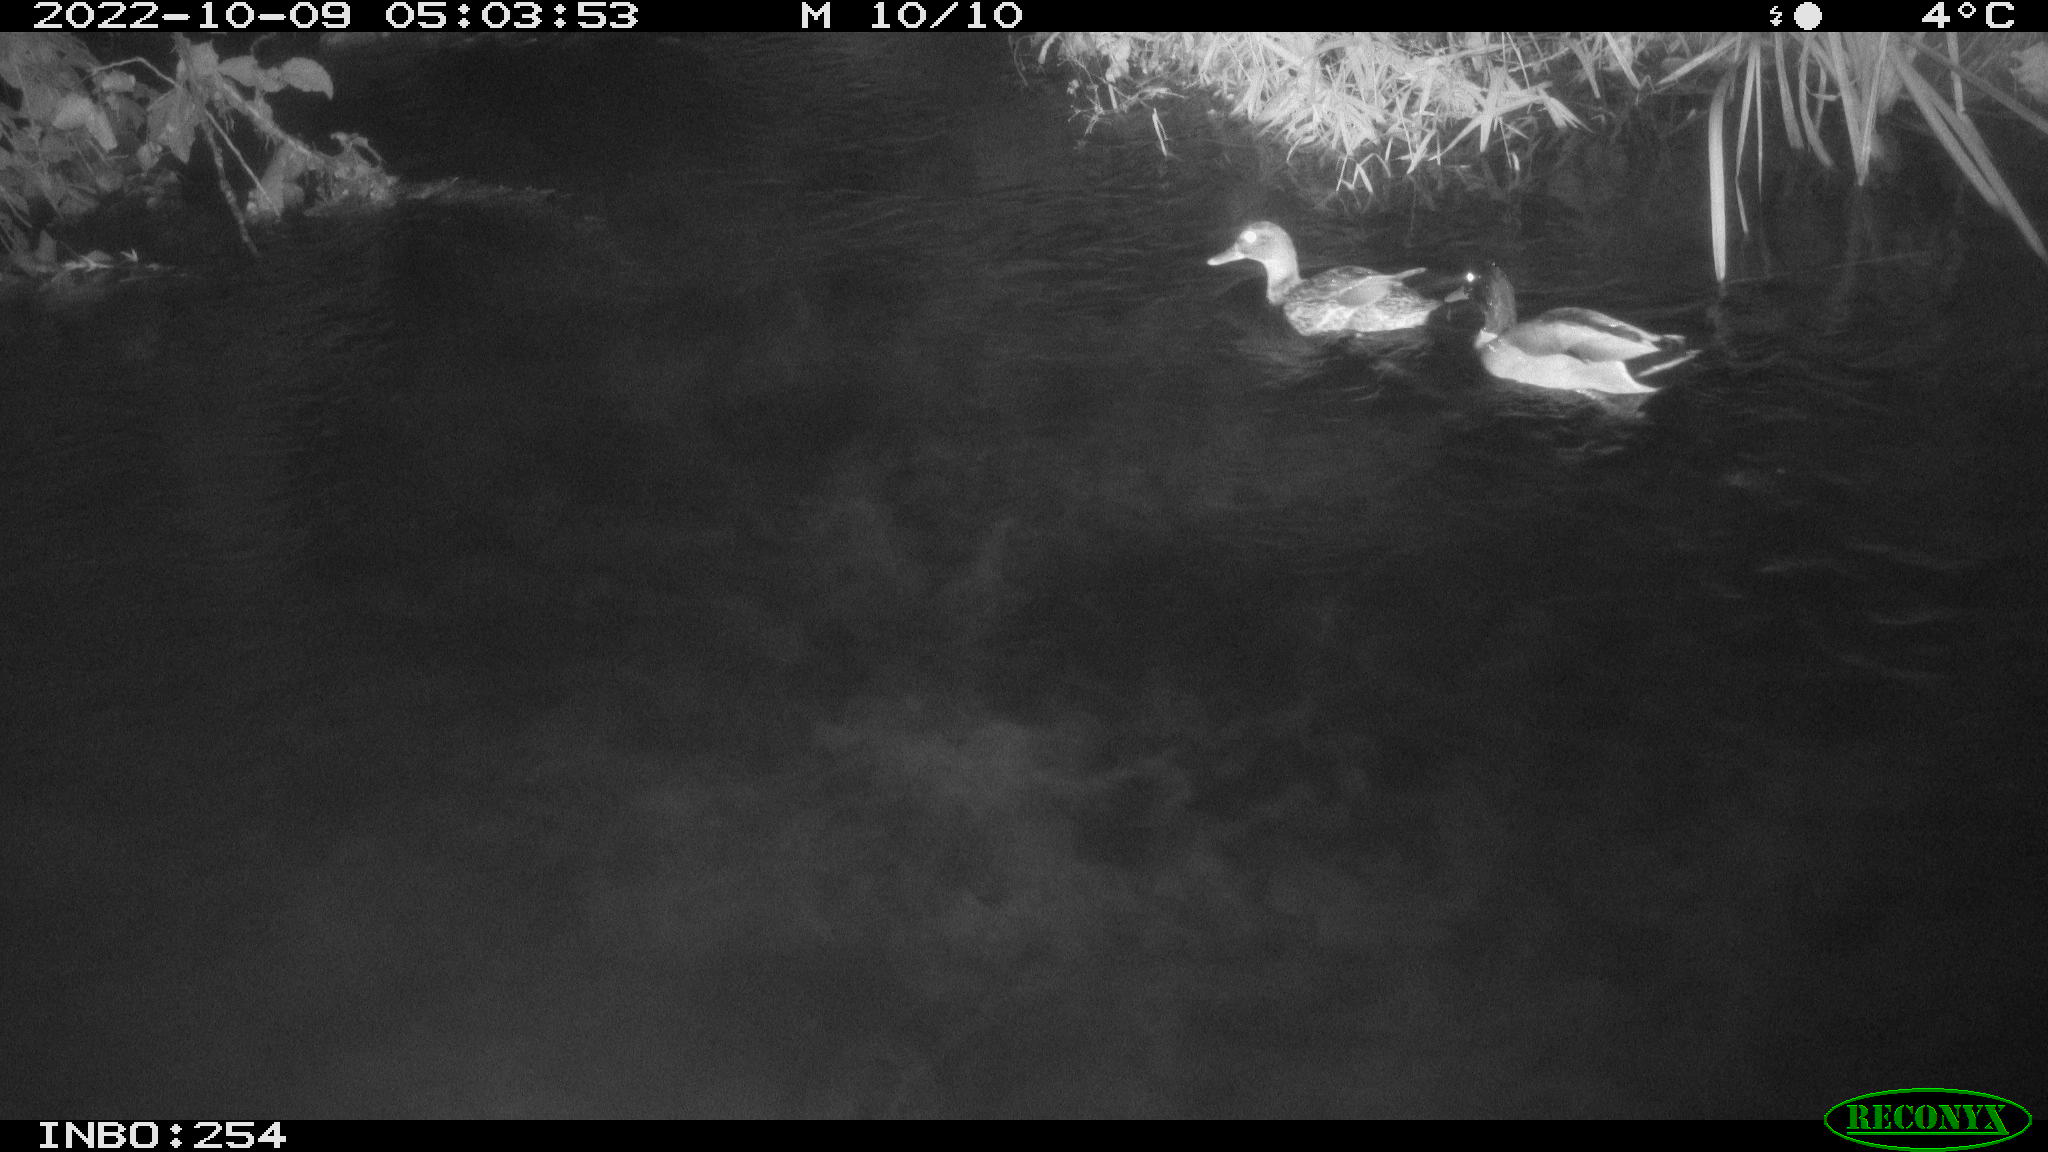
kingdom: Animalia
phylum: Chordata
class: Aves
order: Anseriformes
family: Anatidae
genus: Anas
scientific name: Anas
